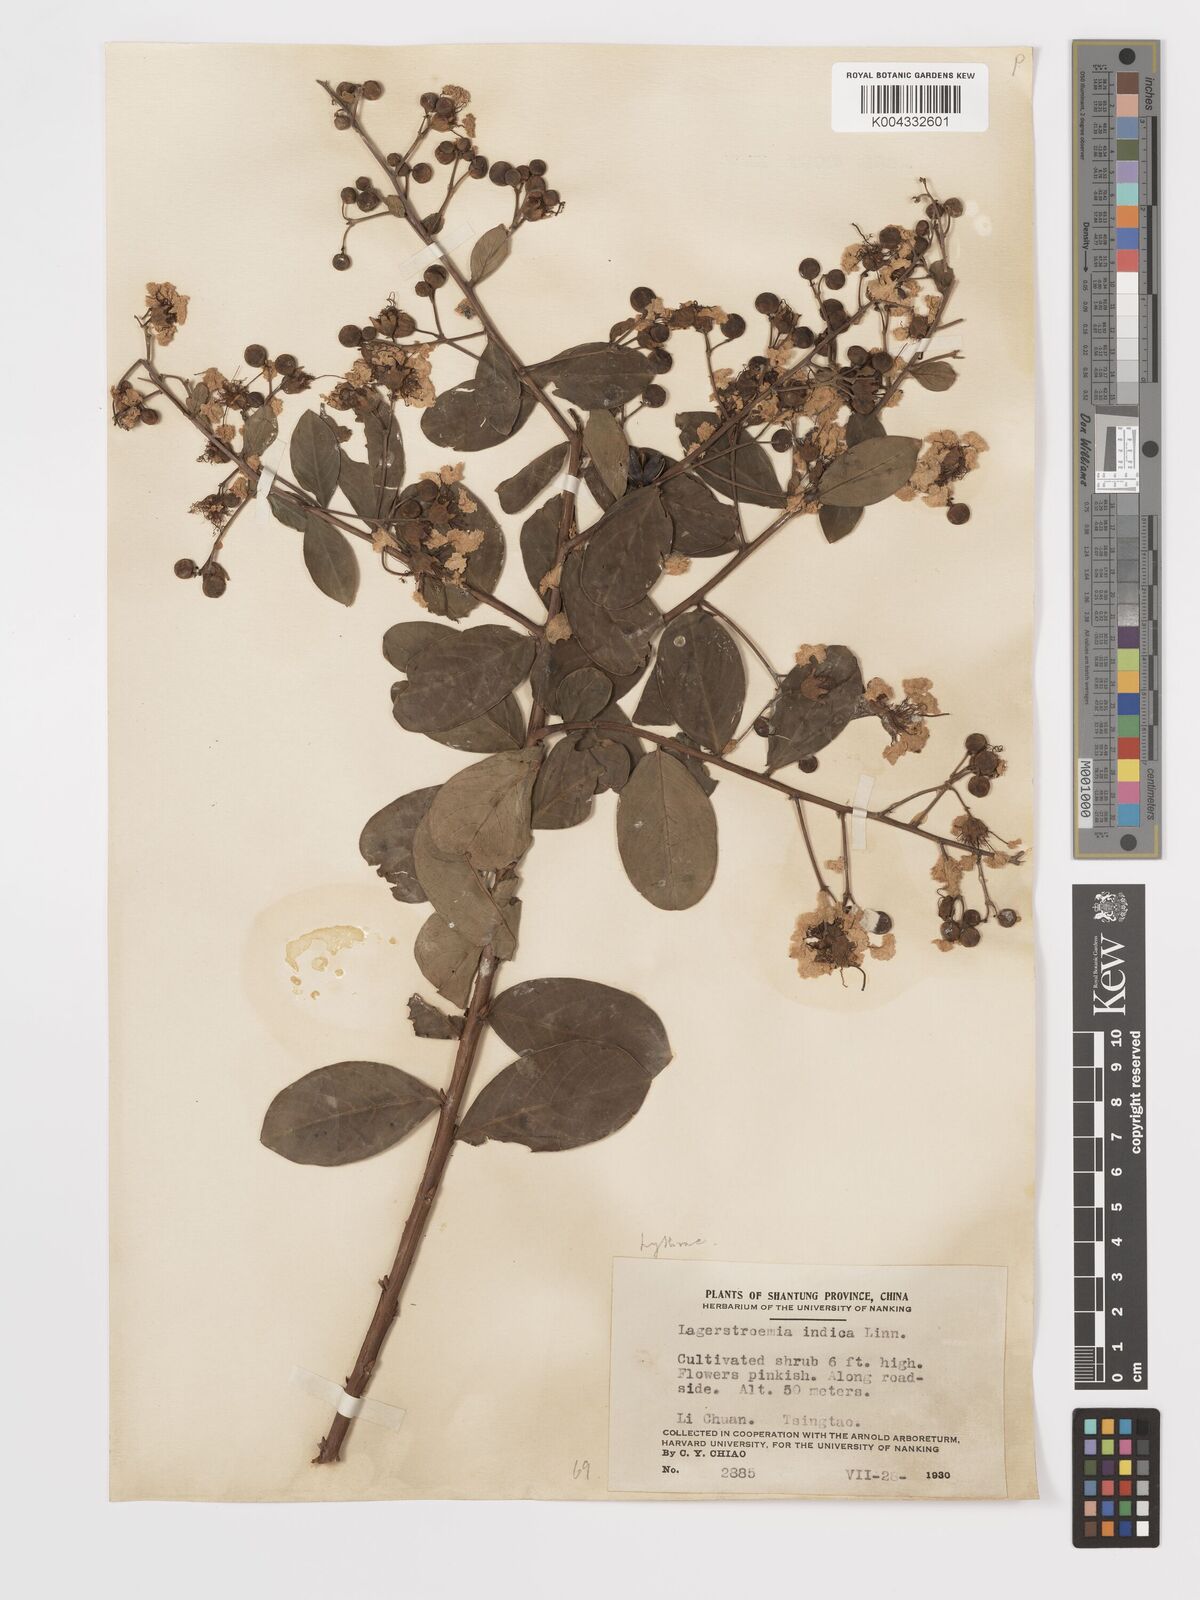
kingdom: Plantae
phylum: Tracheophyta
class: Magnoliopsida
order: Myrtales
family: Lythraceae
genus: Lagerstroemia
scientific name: Lagerstroemia indica
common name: Crape-myrtle
